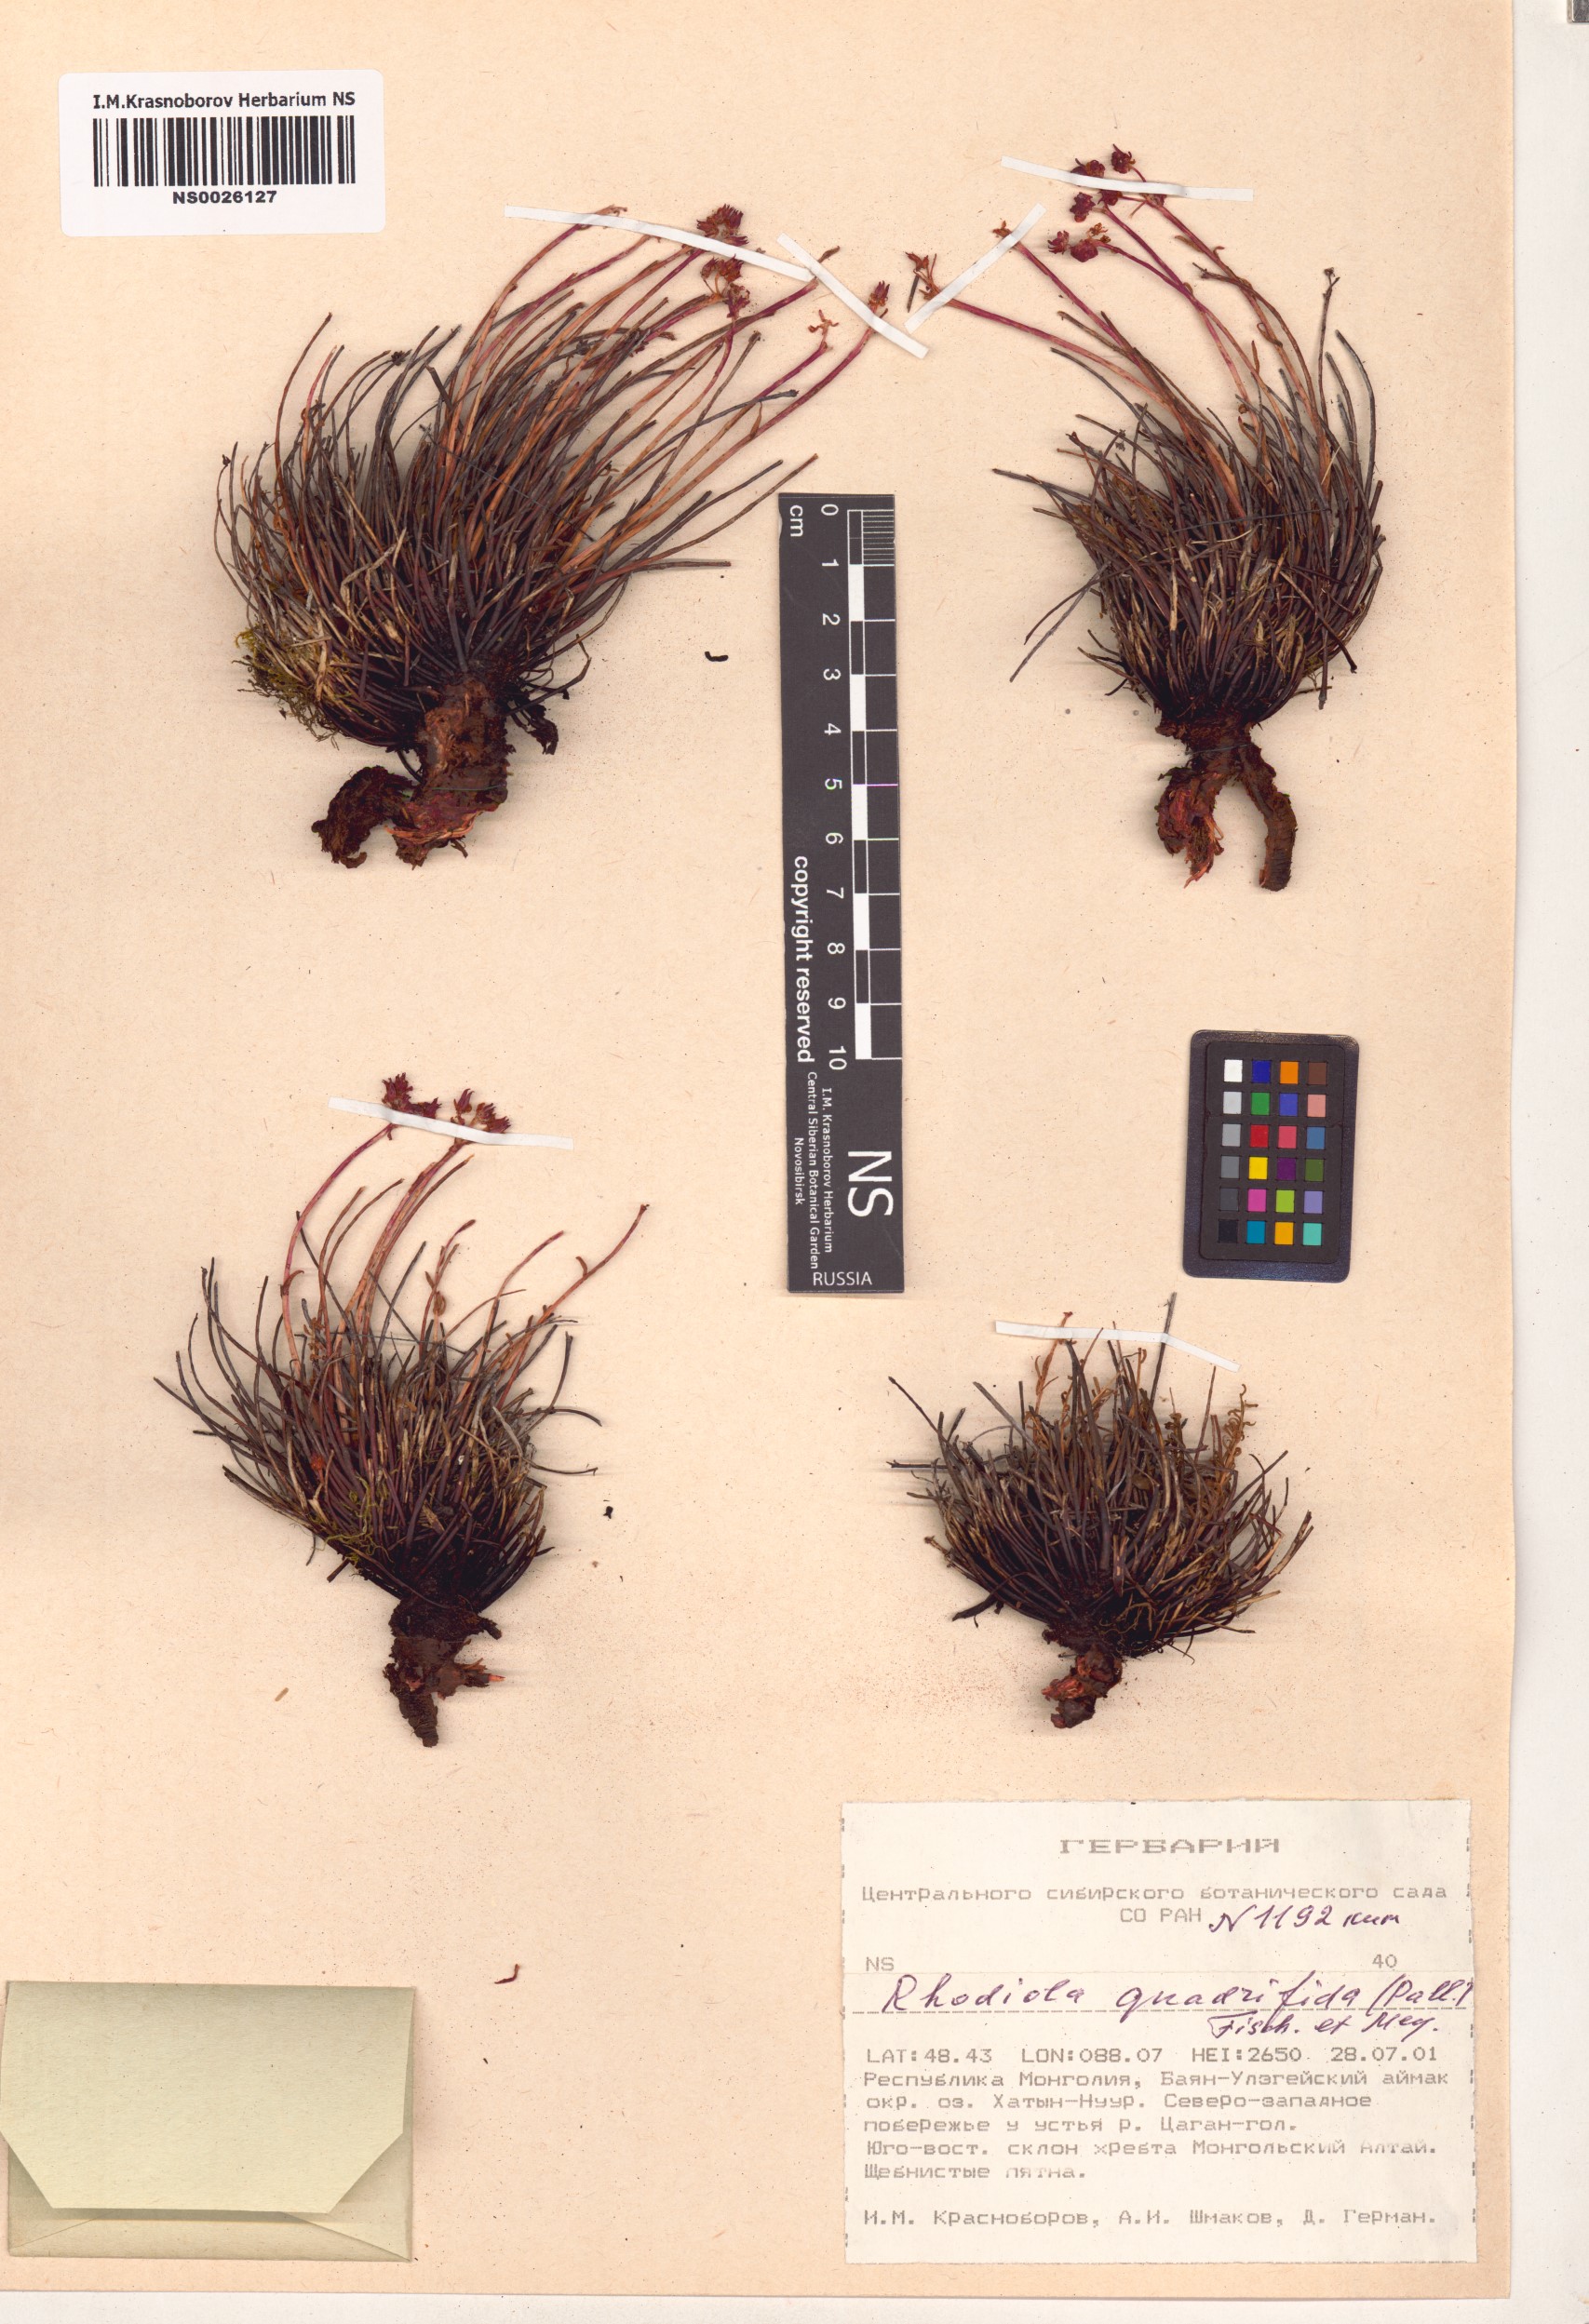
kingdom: Plantae
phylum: Tracheophyta
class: Magnoliopsida
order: Saxifragales
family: Crassulaceae
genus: Rhodiola
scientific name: Rhodiola quadrifida
